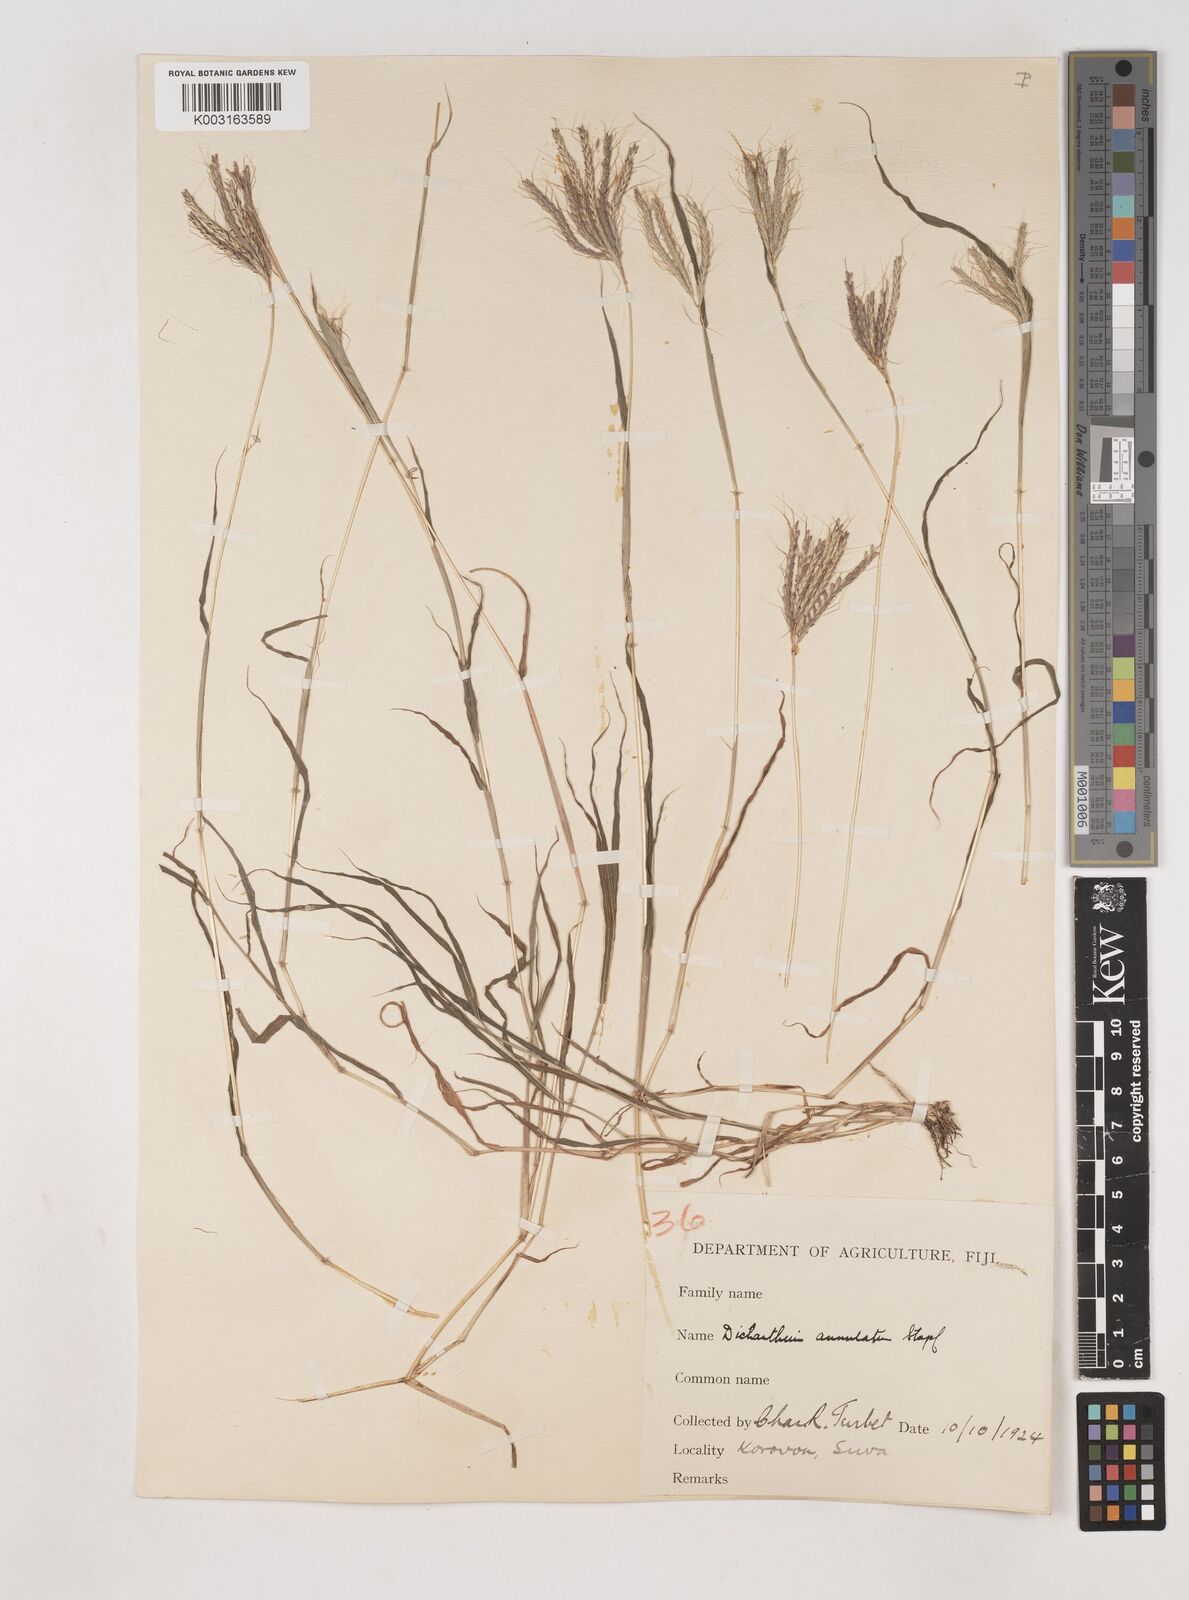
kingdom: Plantae
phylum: Tracheophyta
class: Liliopsida
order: Poales
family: Poaceae
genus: Dichanthium
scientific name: Dichanthium annulatum
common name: Kleberg's bluestem
